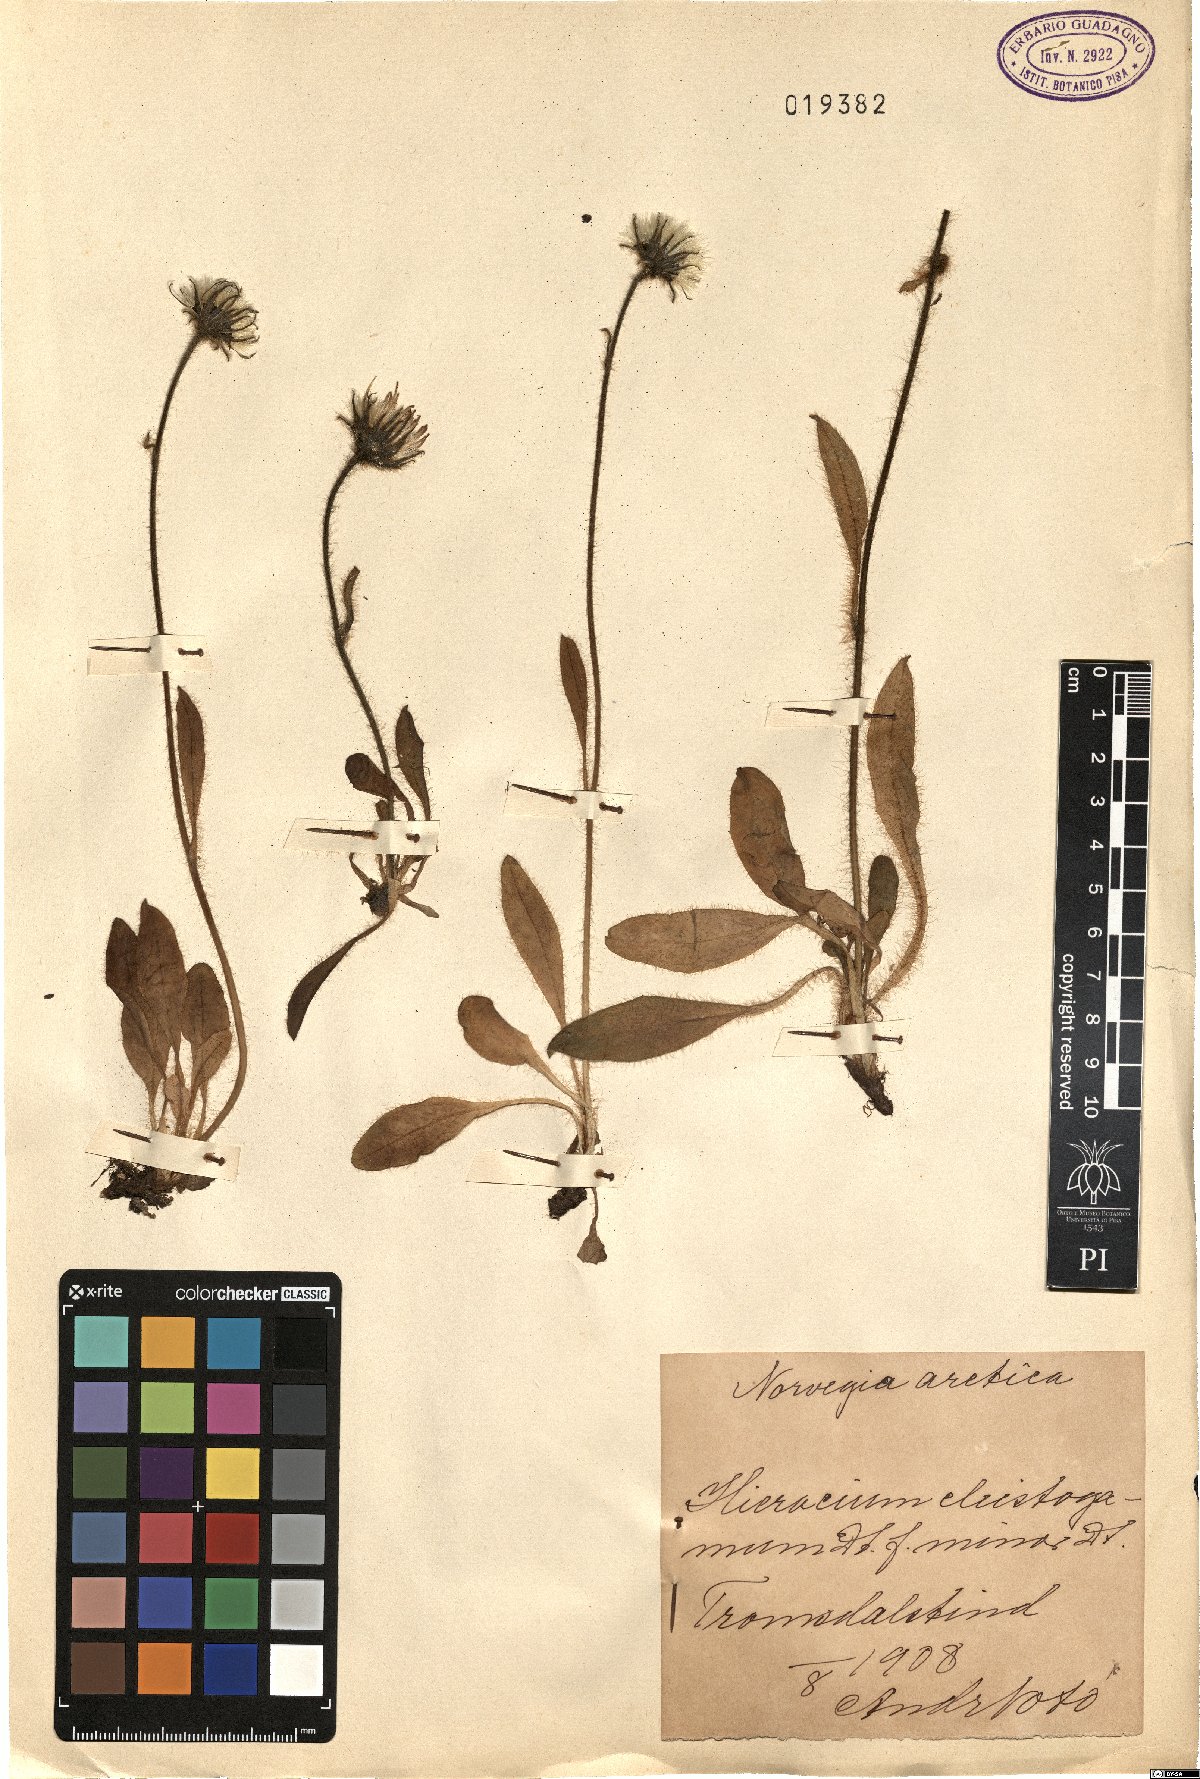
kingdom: Plantae
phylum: Tracheophyta
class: Magnoliopsida
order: Asterales
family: Asteraceae
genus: Hieracium
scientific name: Hieracium cleistogamum
